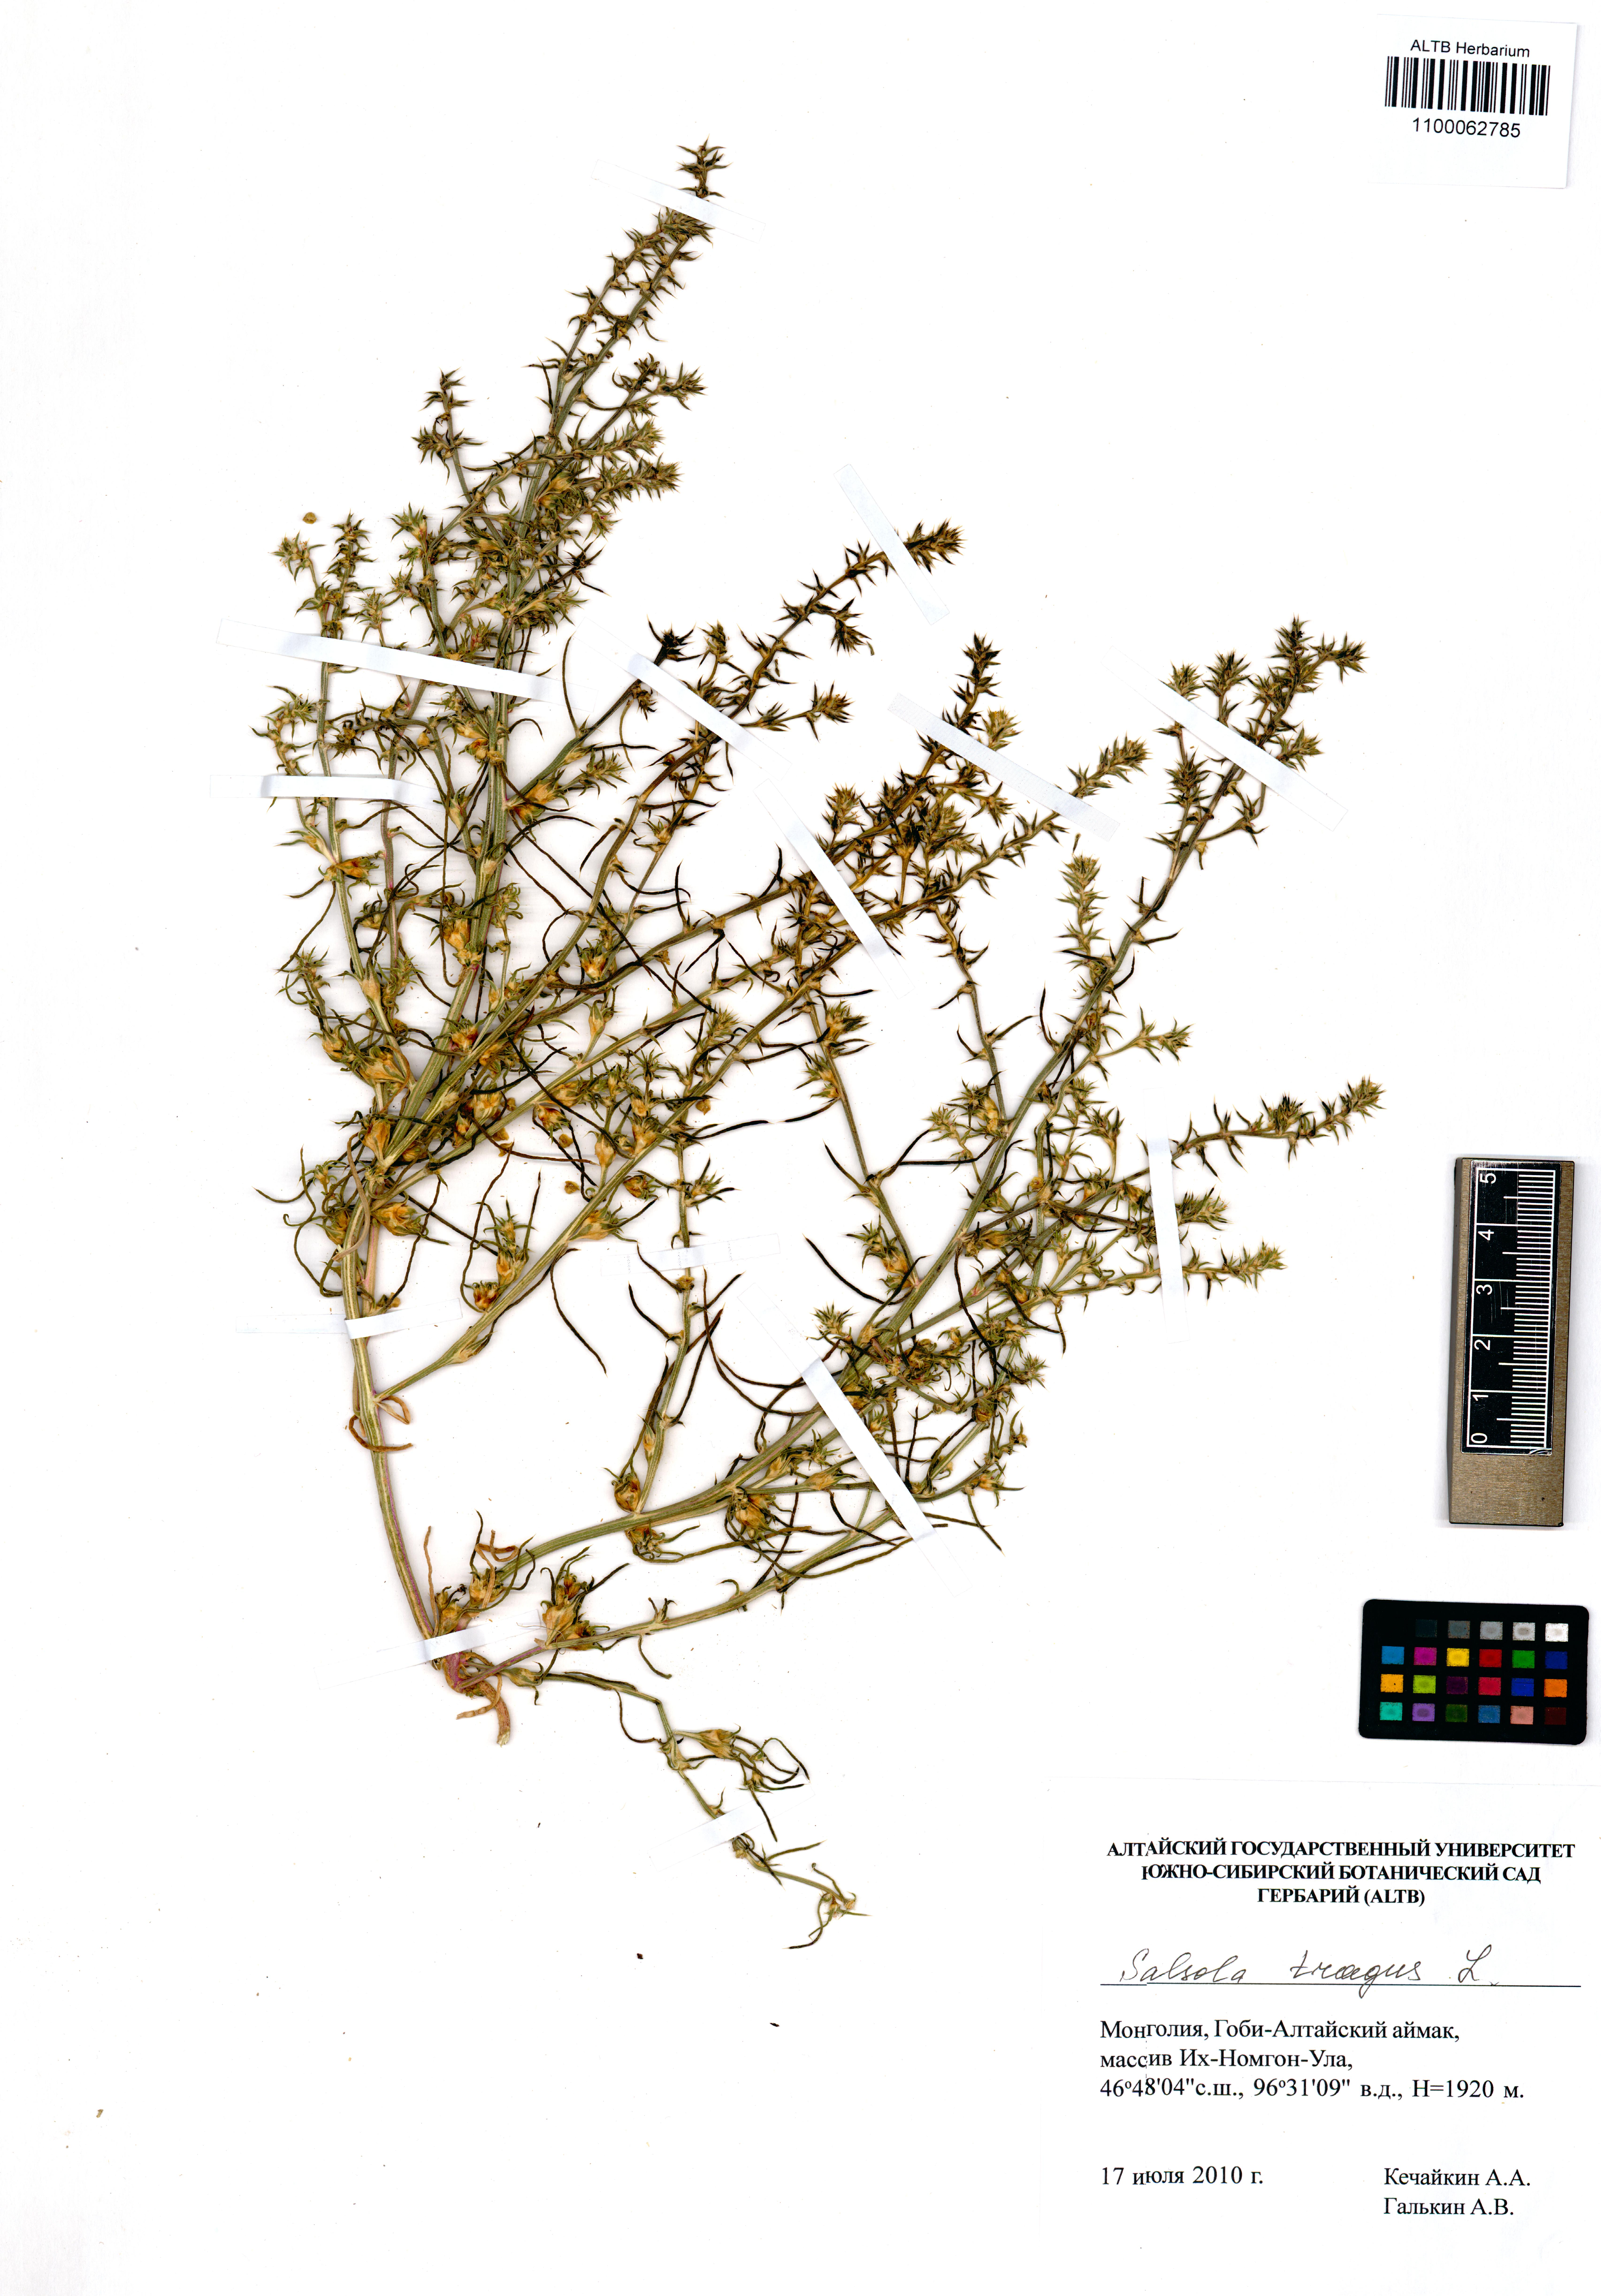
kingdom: Plantae
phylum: Tracheophyta
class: Magnoliopsida
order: Caryophyllales
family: Amaranthaceae
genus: Salsola
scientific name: Salsola tragus
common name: Prickly russian thistle
